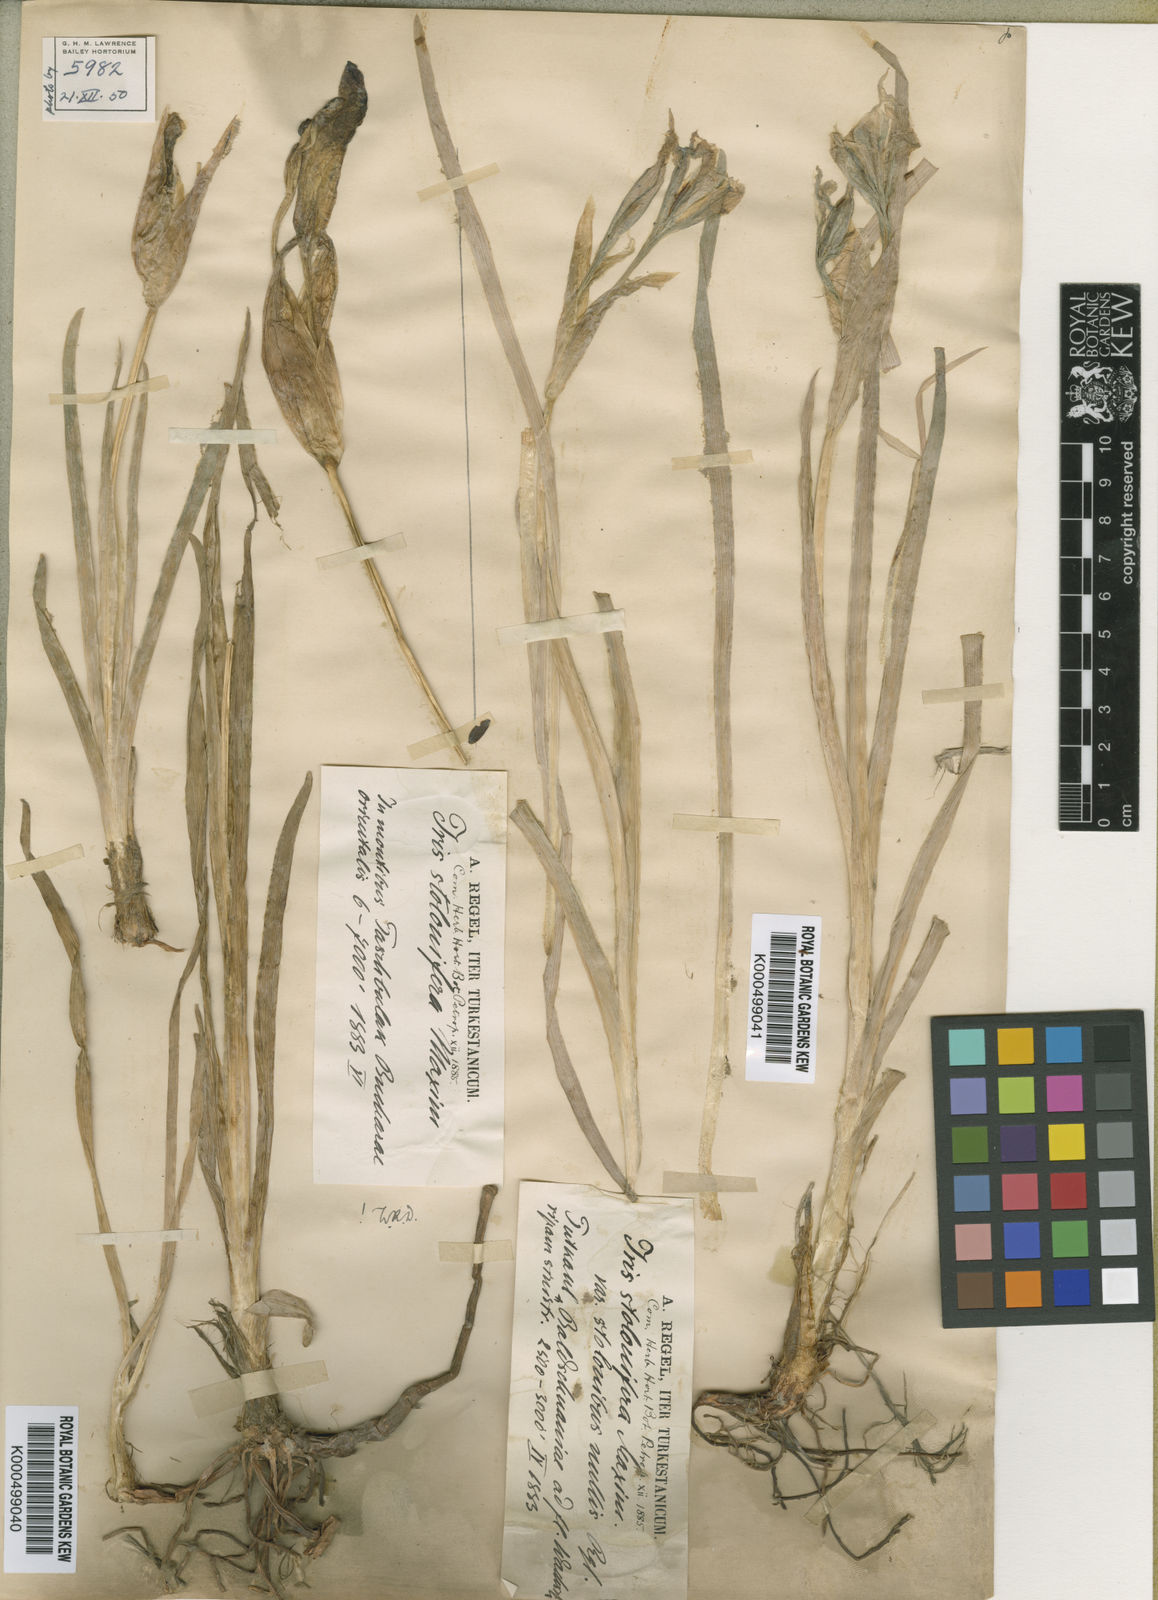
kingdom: Plantae
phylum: Tracheophyta
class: Liliopsida
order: Asparagales
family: Iridaceae
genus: Iris
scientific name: Iris stolonifera
